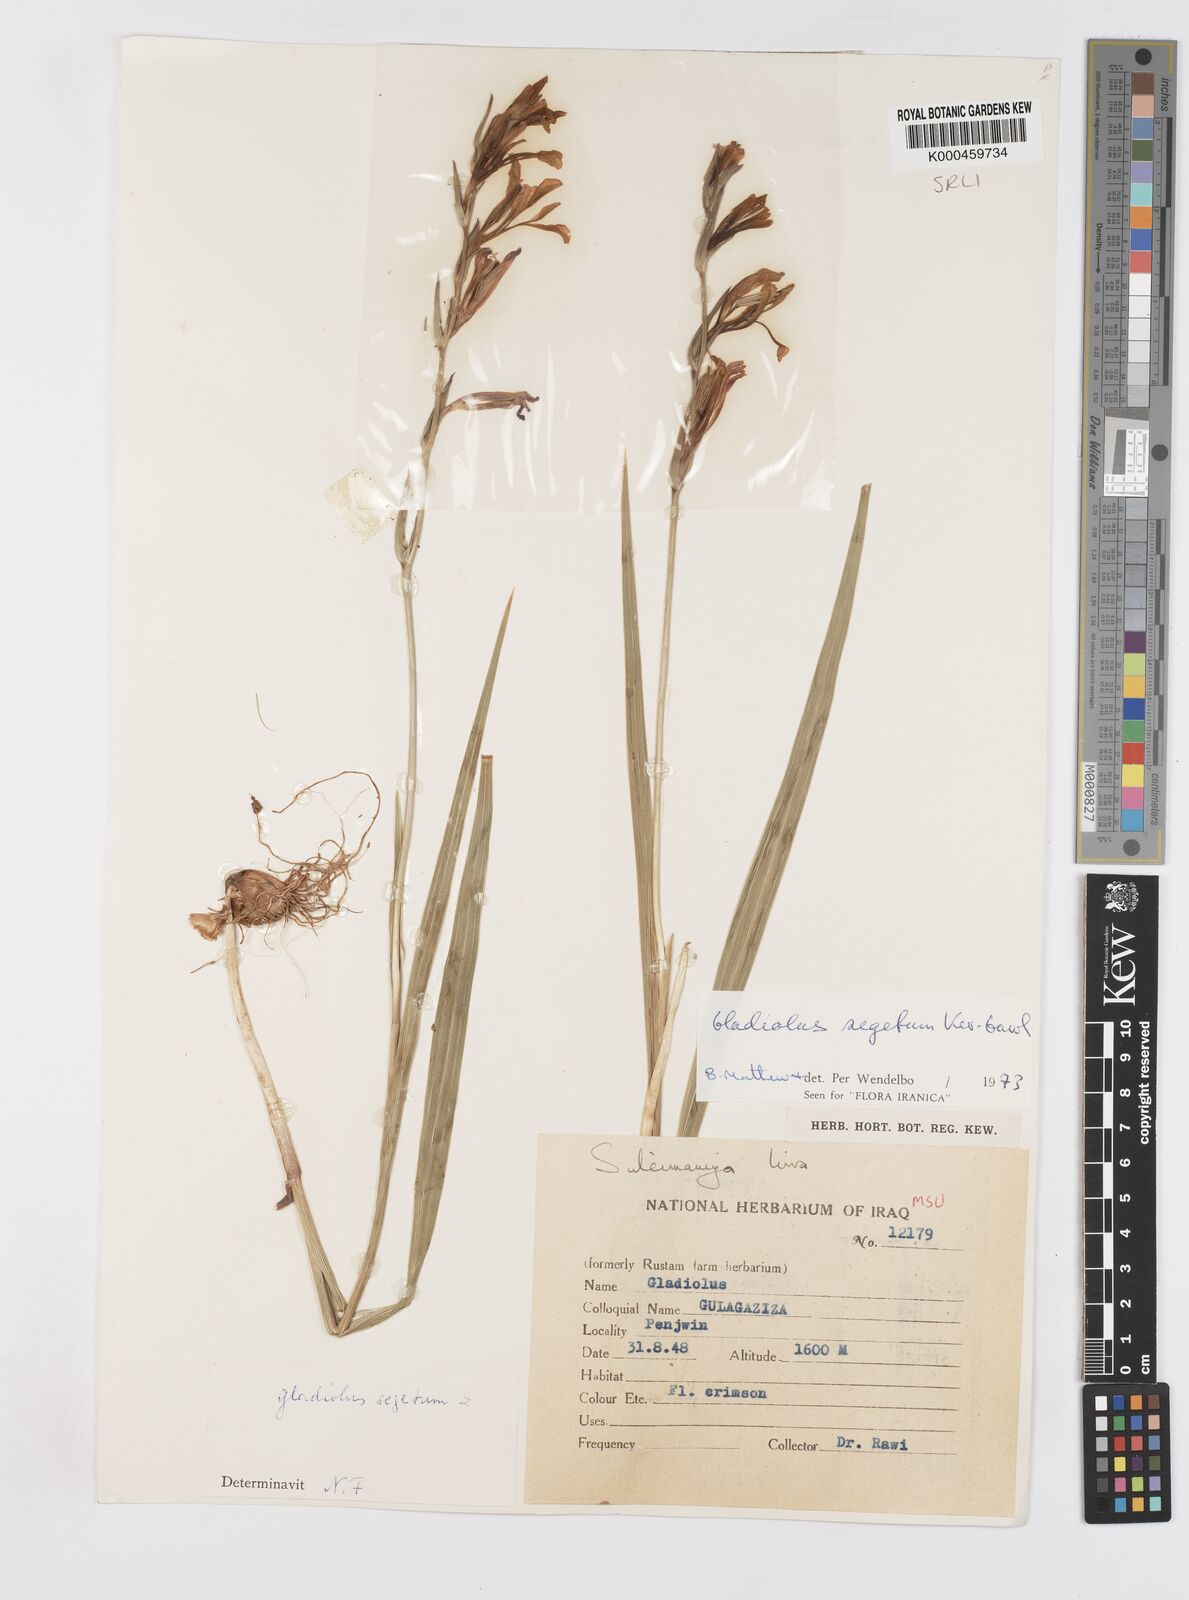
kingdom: Plantae
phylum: Tracheophyta
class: Liliopsida
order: Asparagales
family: Iridaceae
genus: Gladiolus
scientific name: Gladiolus italicus
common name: Field gladiolus
